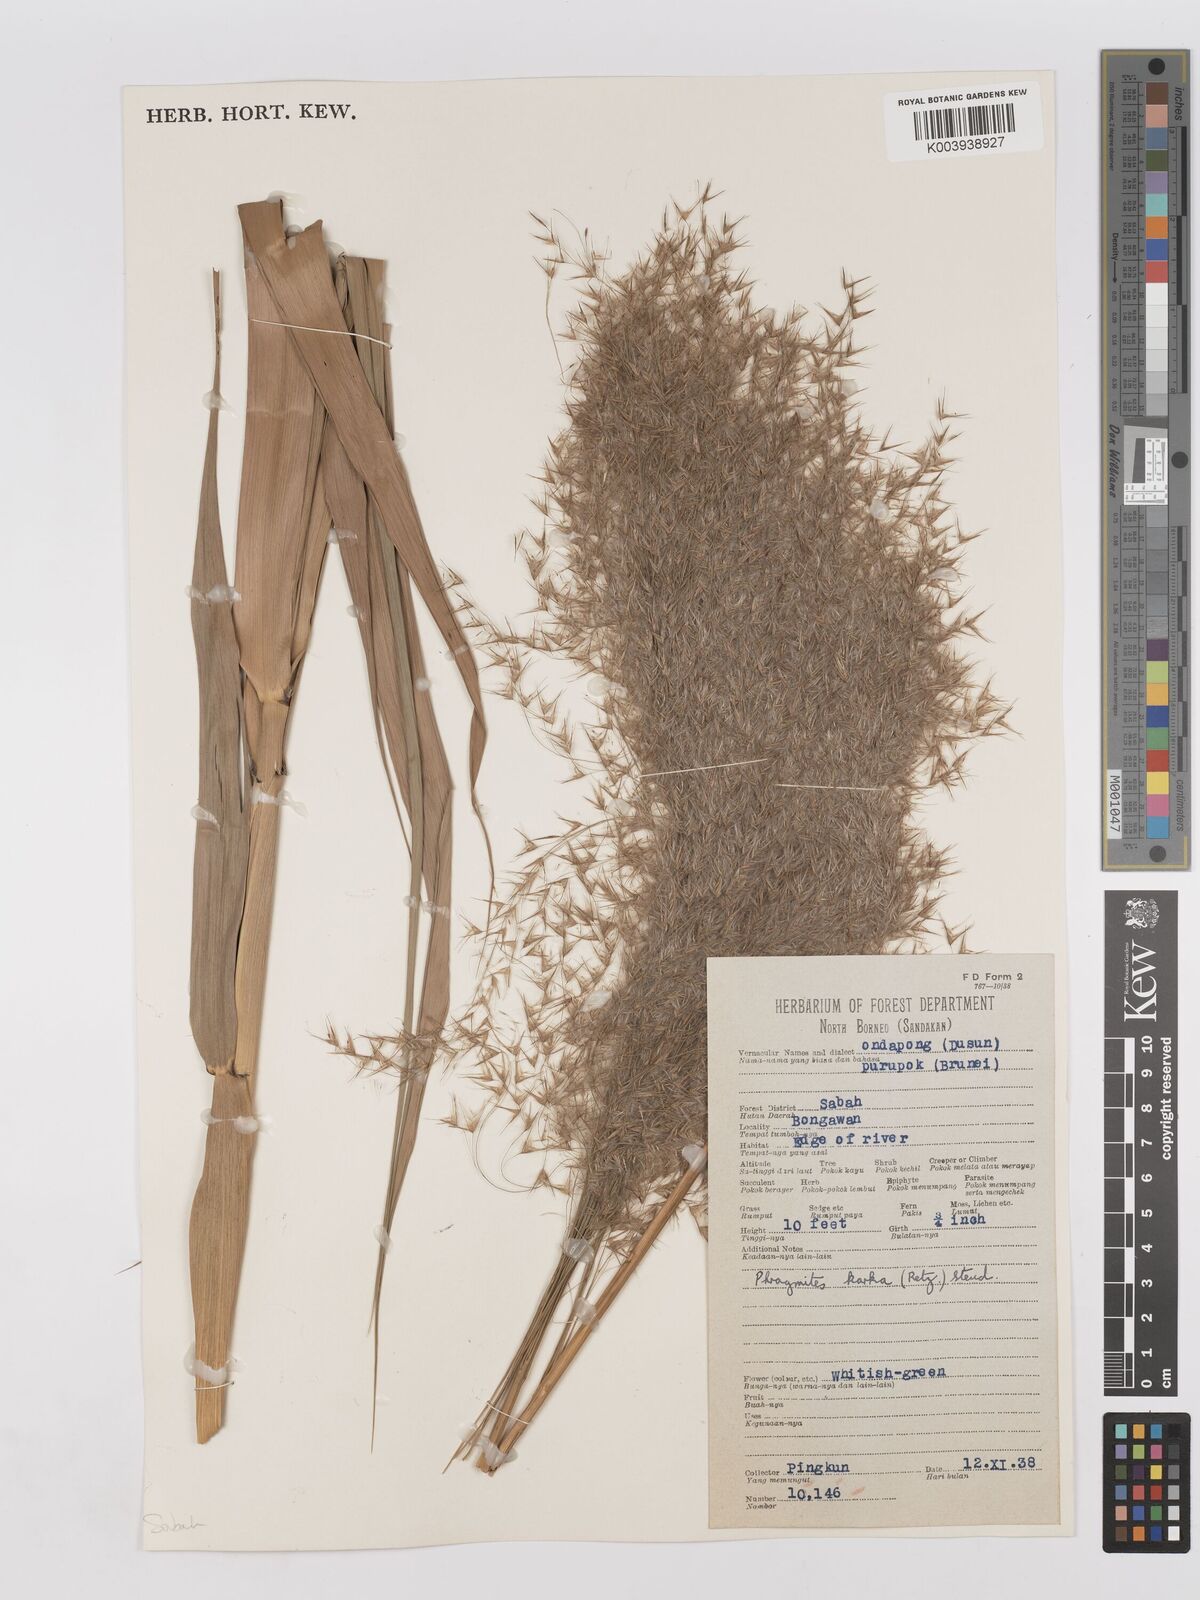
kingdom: Plantae
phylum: Tracheophyta
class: Liliopsida
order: Poales
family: Poaceae
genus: Phragmites
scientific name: Phragmites karka
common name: Tropical reed
